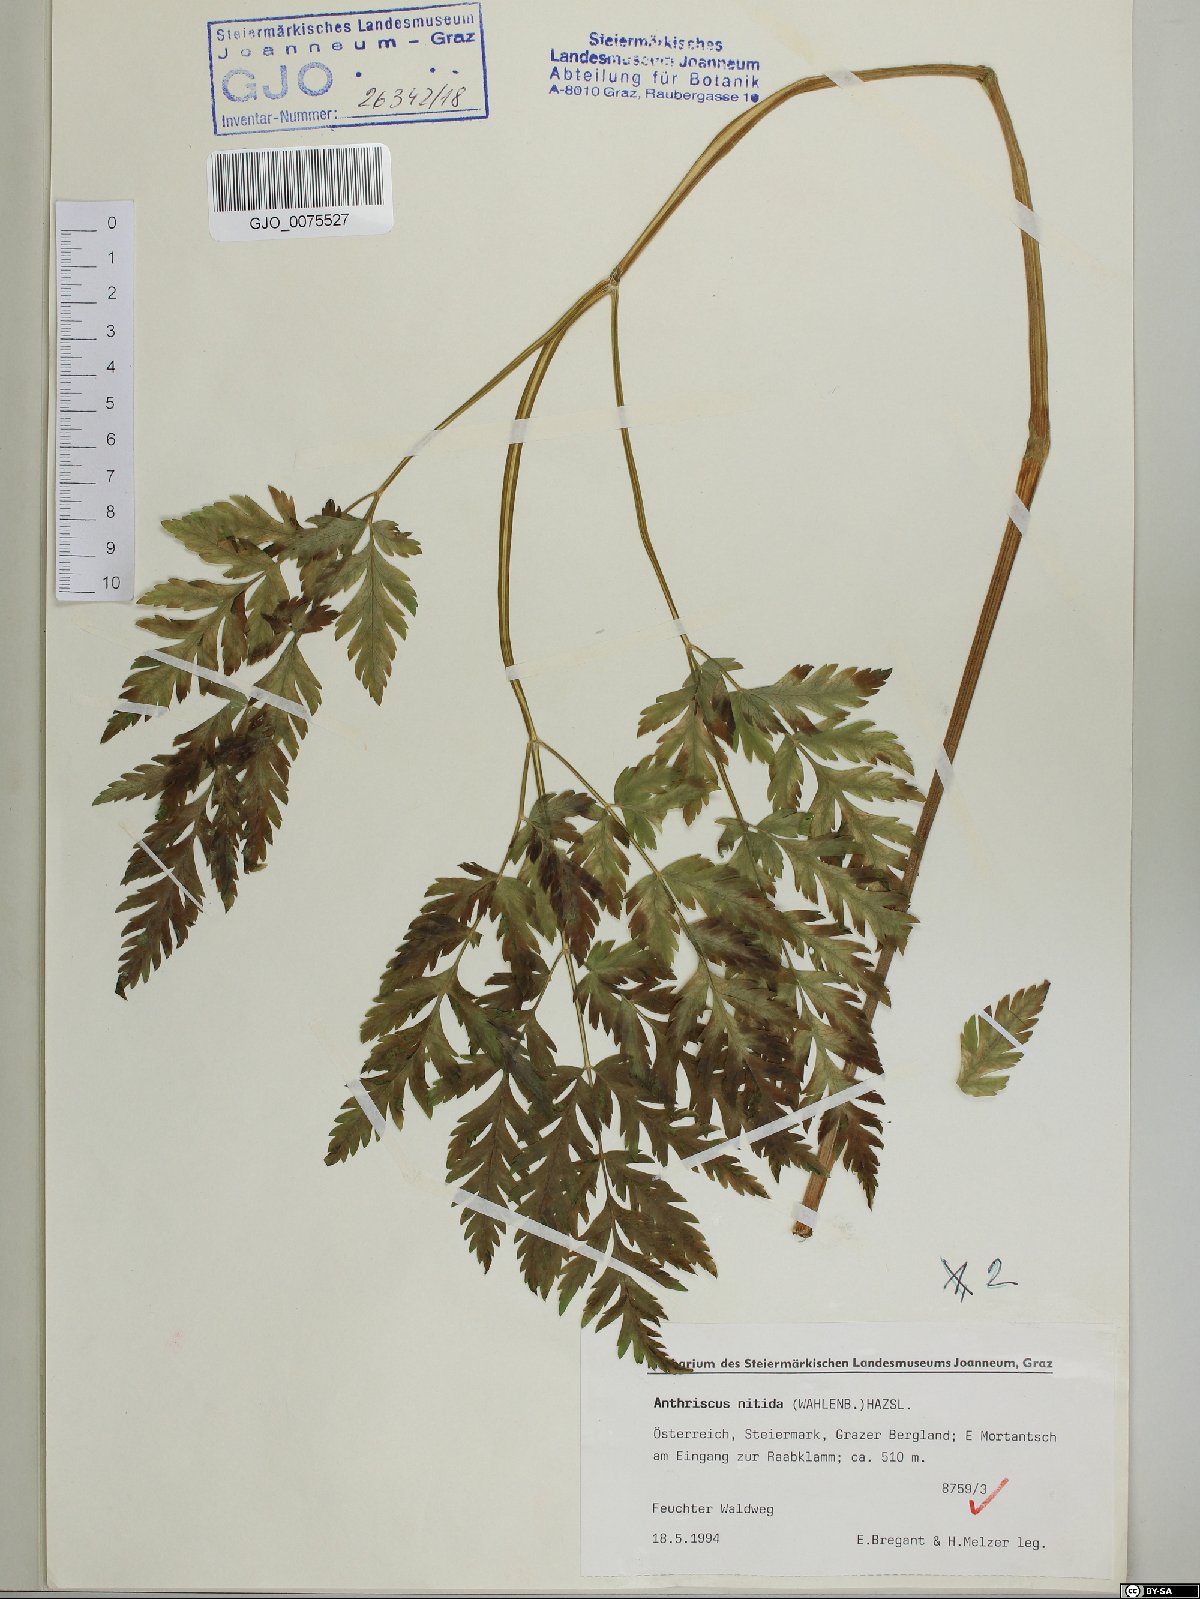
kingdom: Plantae
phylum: Tracheophyta
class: Magnoliopsida
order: Apiales
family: Apiaceae
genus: Anthriscus
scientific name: Anthriscus nitida
